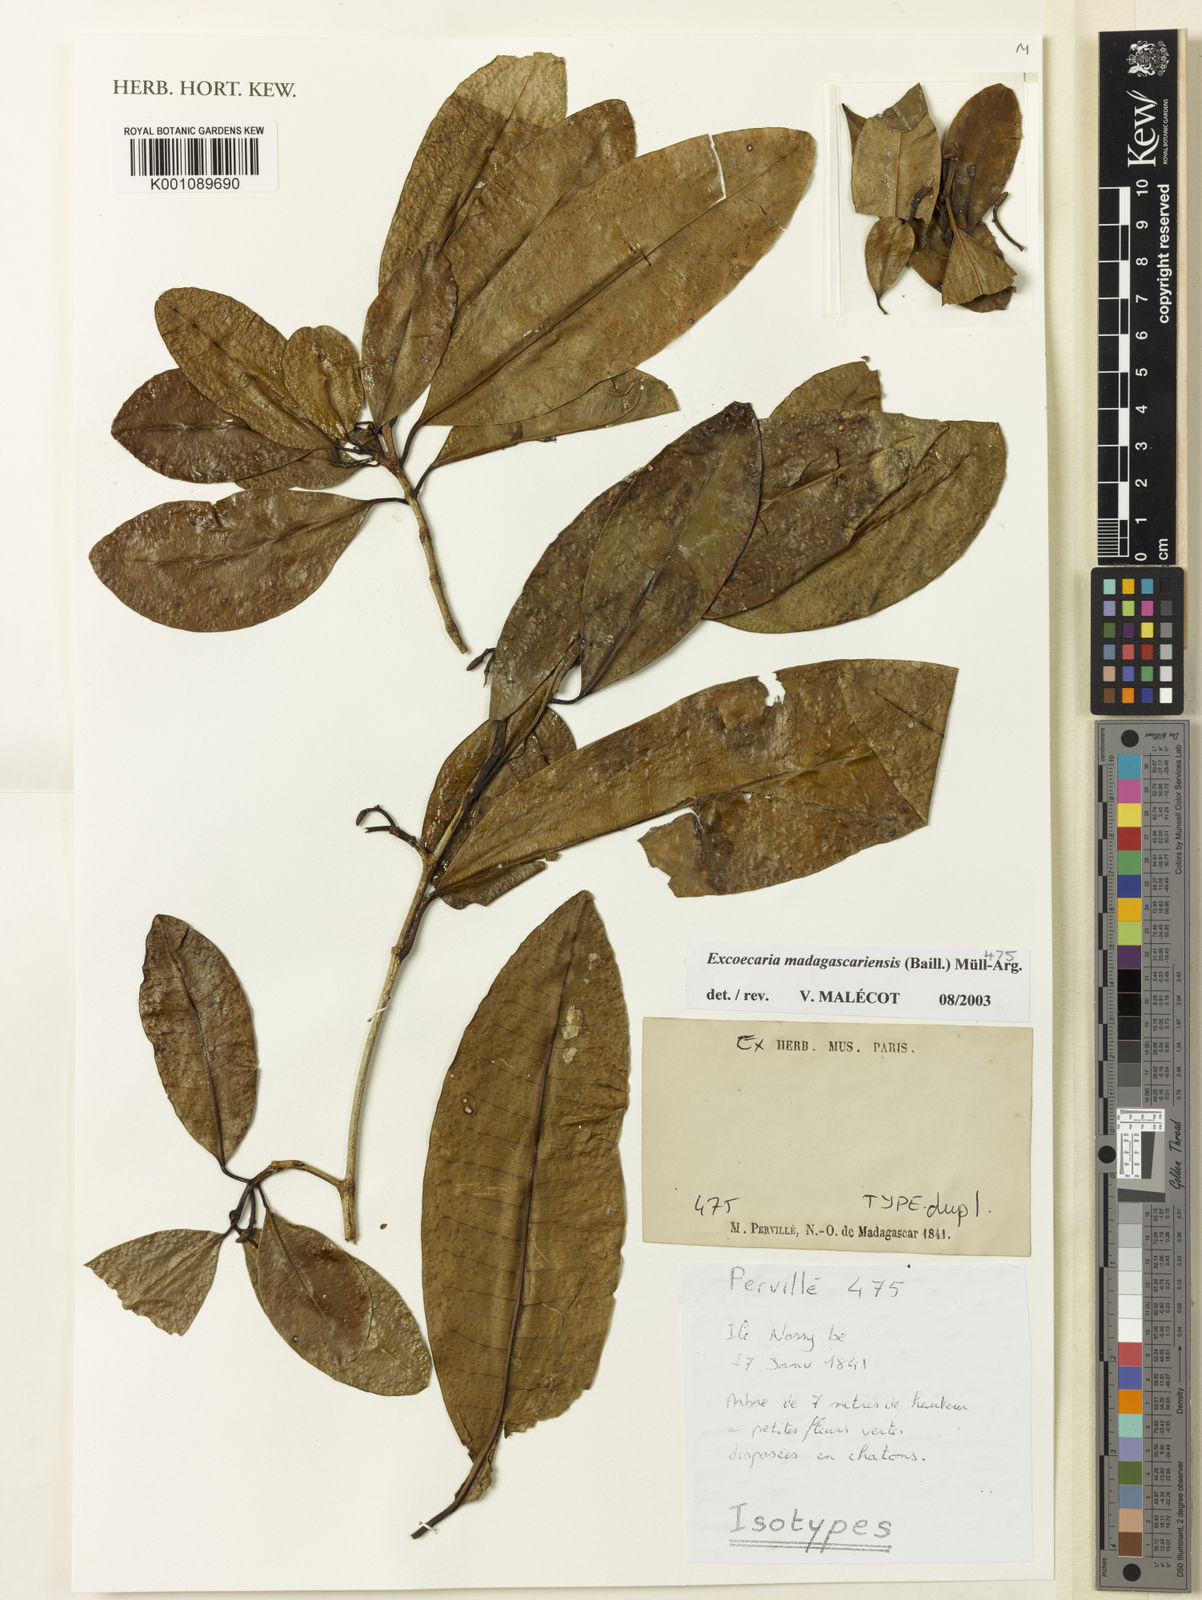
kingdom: Plantae
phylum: Tracheophyta
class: Magnoliopsida
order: Malpighiales
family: Euphorbiaceae
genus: Excoecaria
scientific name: Excoecaria
